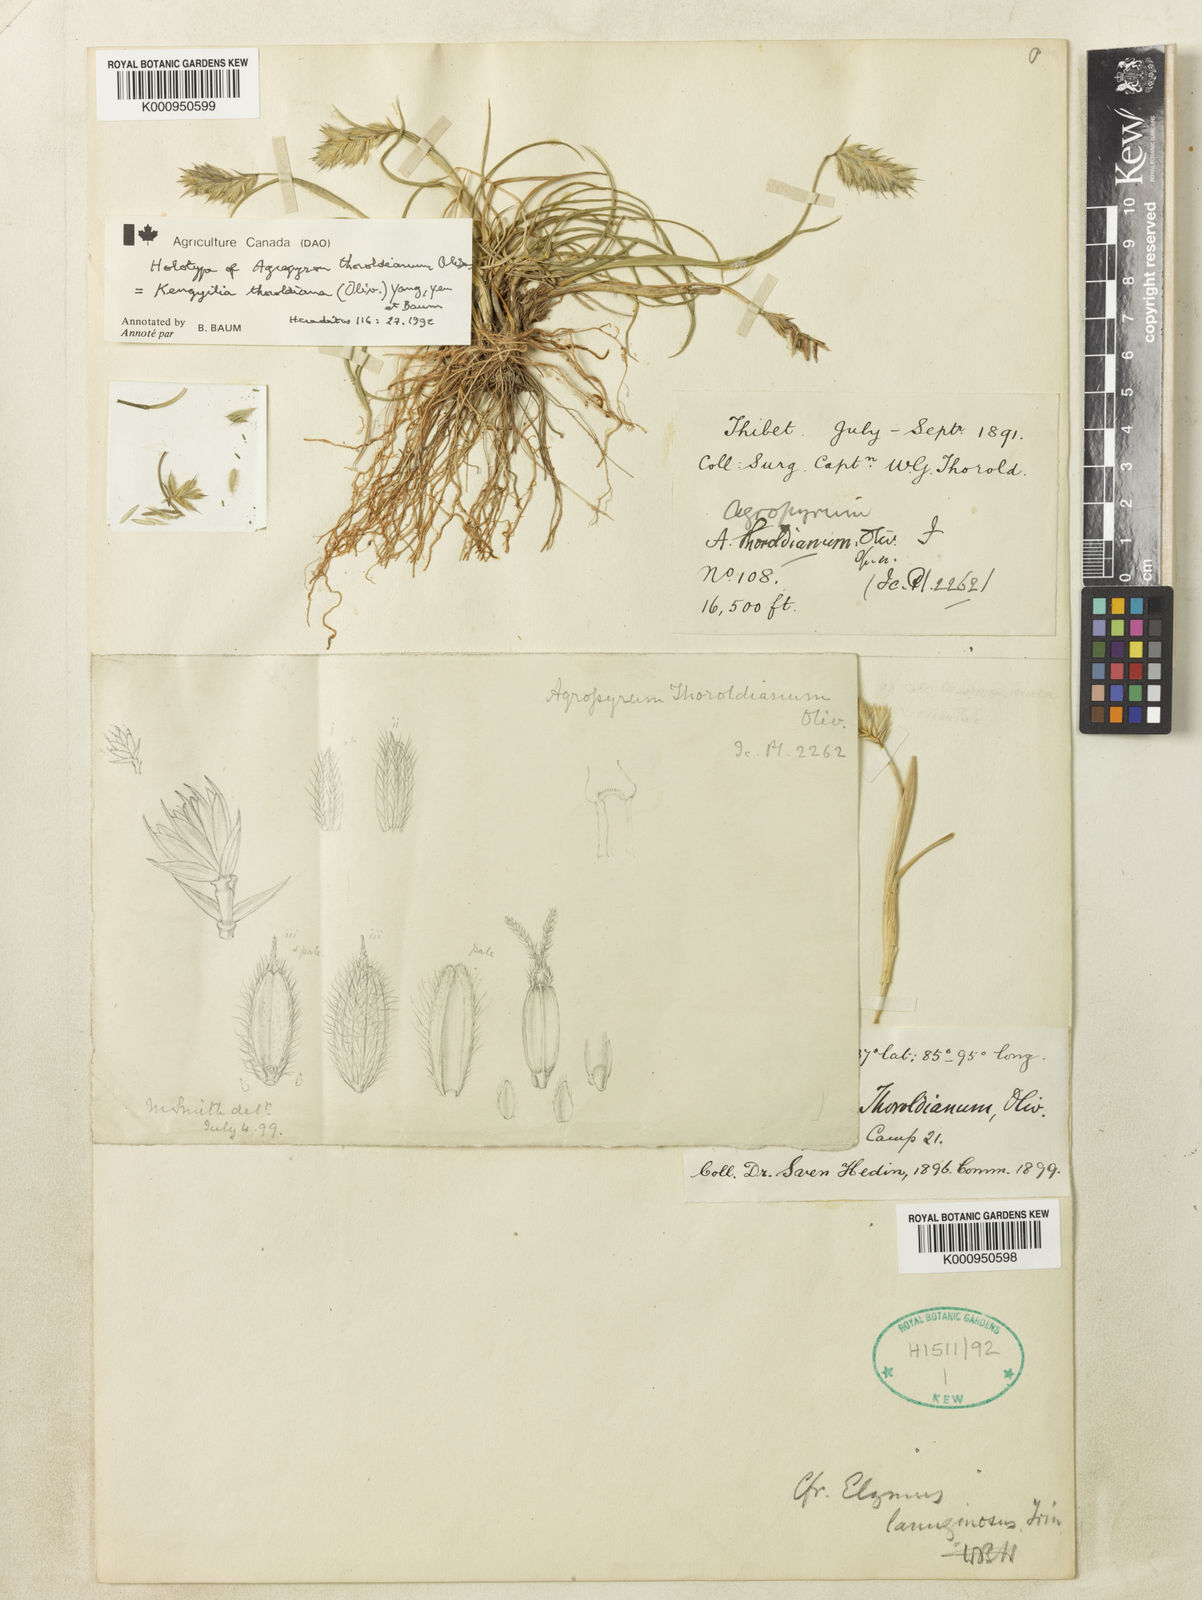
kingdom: Plantae
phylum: Tracheophyta
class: Liliopsida
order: Poales
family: Poaceae
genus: Agropyron
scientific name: Agropyron
